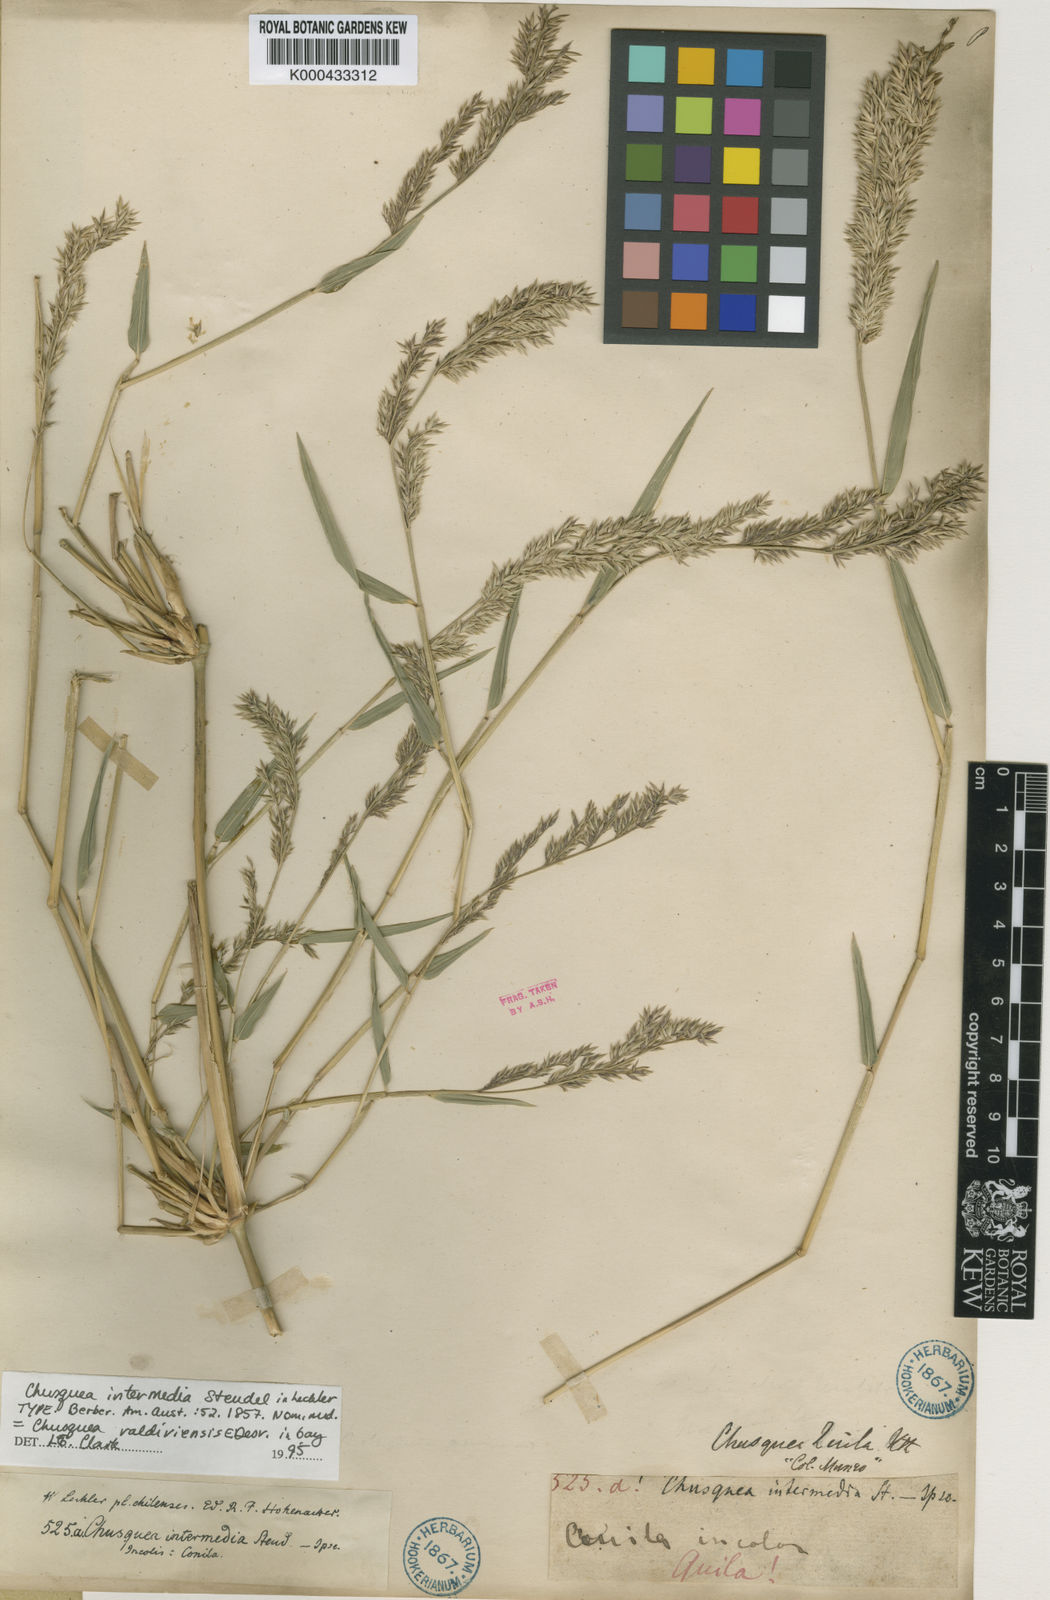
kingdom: Plantae
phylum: Tracheophyta
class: Liliopsida
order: Poales
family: Poaceae
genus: Chusquea
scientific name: Chusquea valdiviensis
